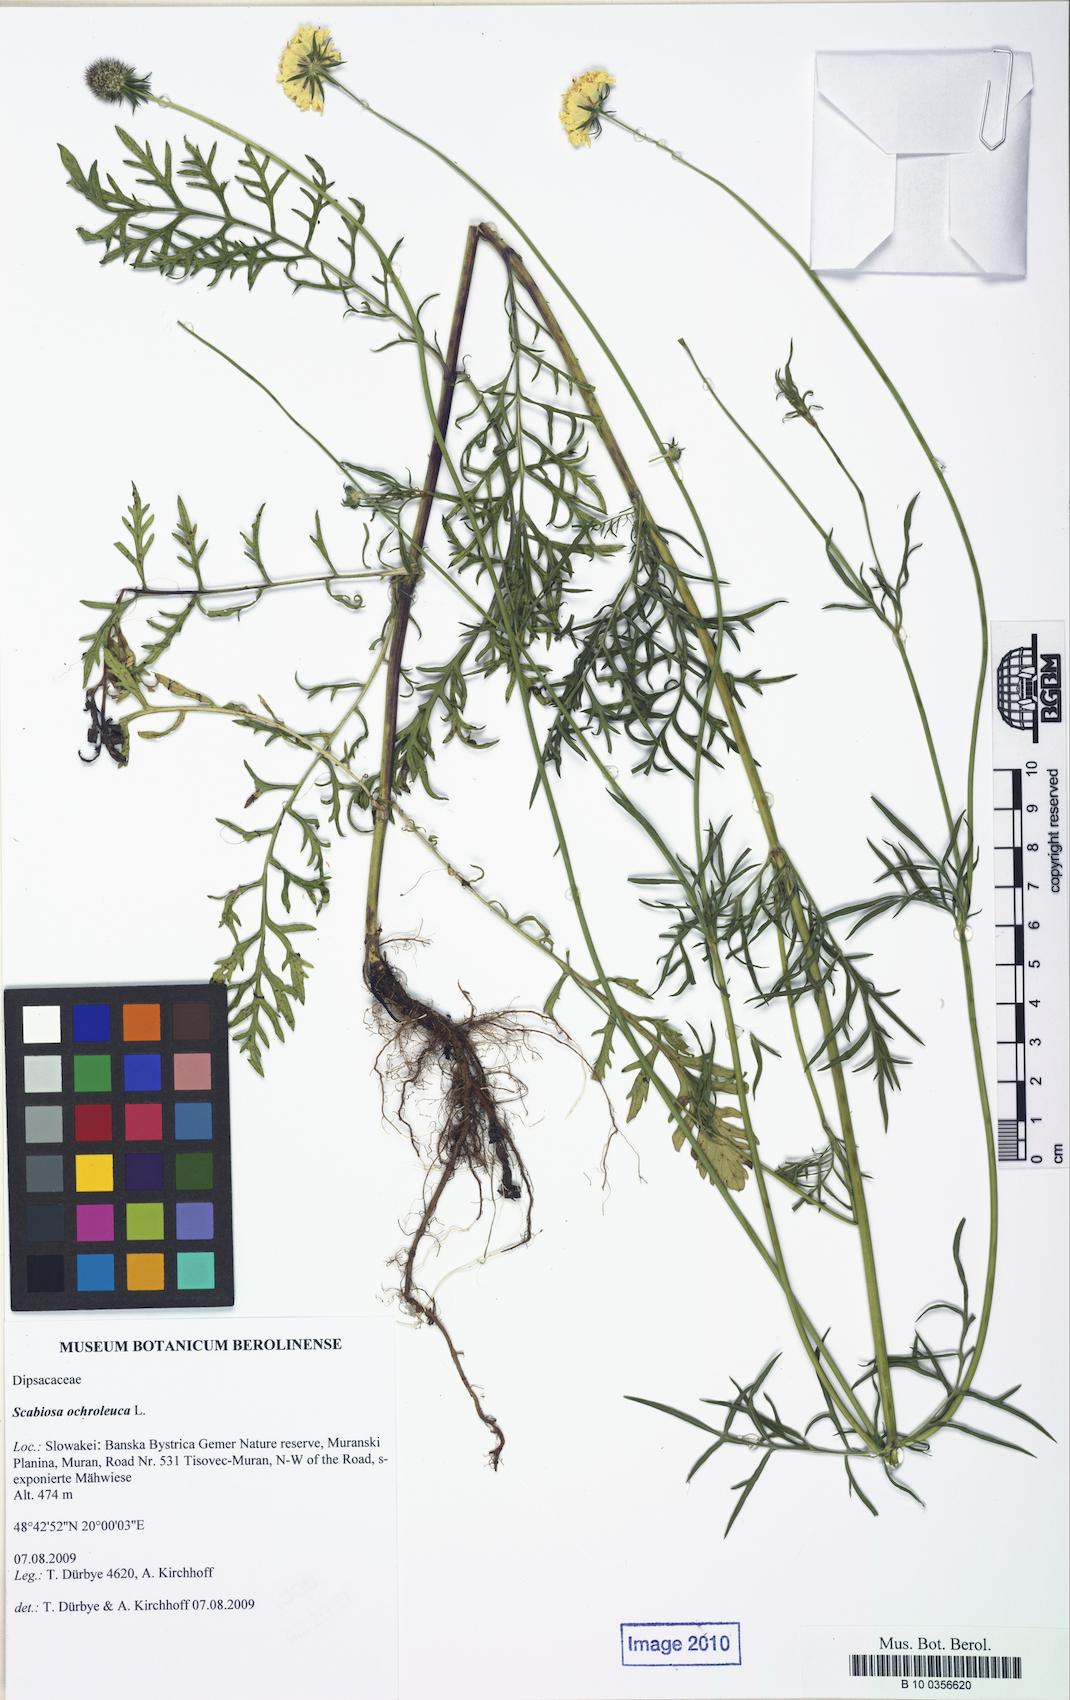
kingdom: Plantae
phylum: Tracheophyta
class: Magnoliopsida
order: Dipsacales
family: Caprifoliaceae
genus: Scabiosa
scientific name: Scabiosa ochroleuca
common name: Cream pincushions
